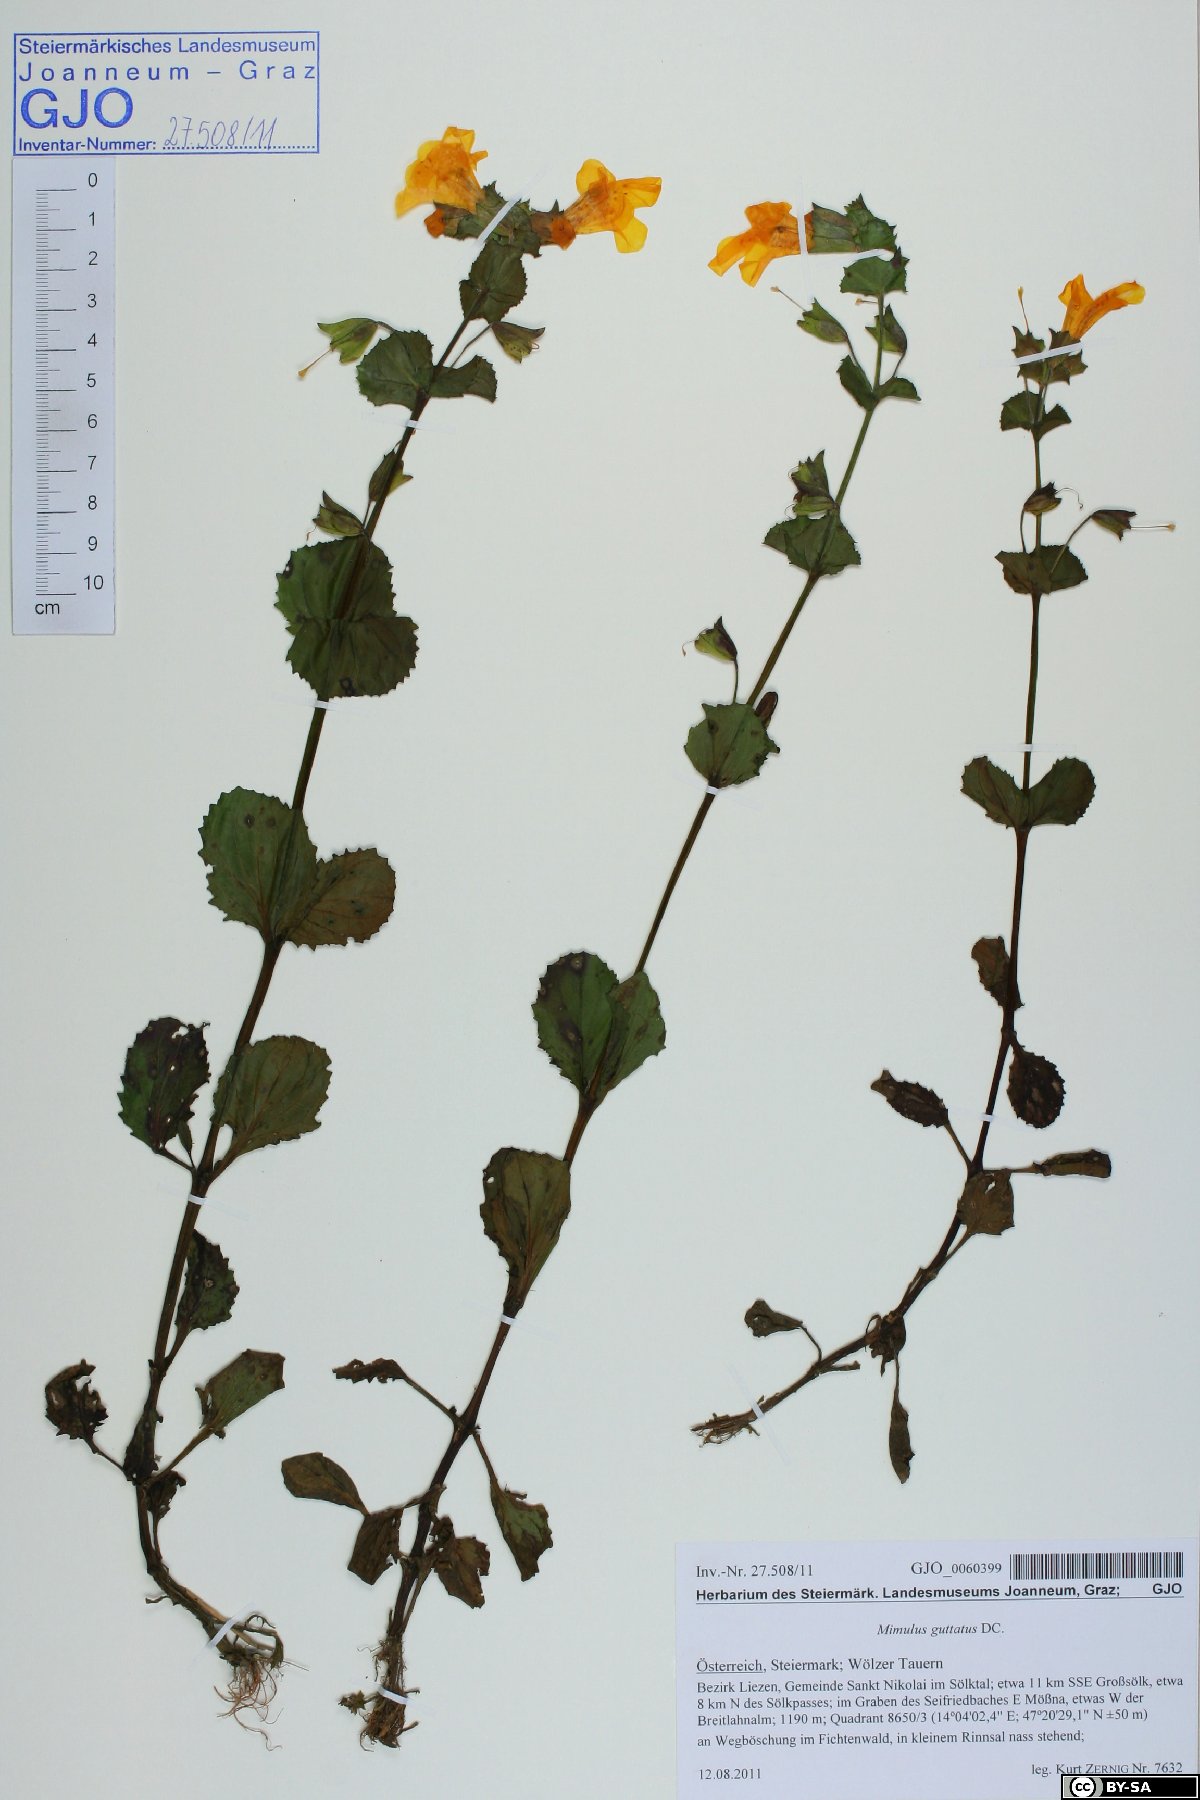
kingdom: Plantae
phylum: Tracheophyta
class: Magnoliopsida
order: Lamiales
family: Phrymaceae
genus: Erythranthe
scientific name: Erythranthe guttata
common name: Monkeyflower
